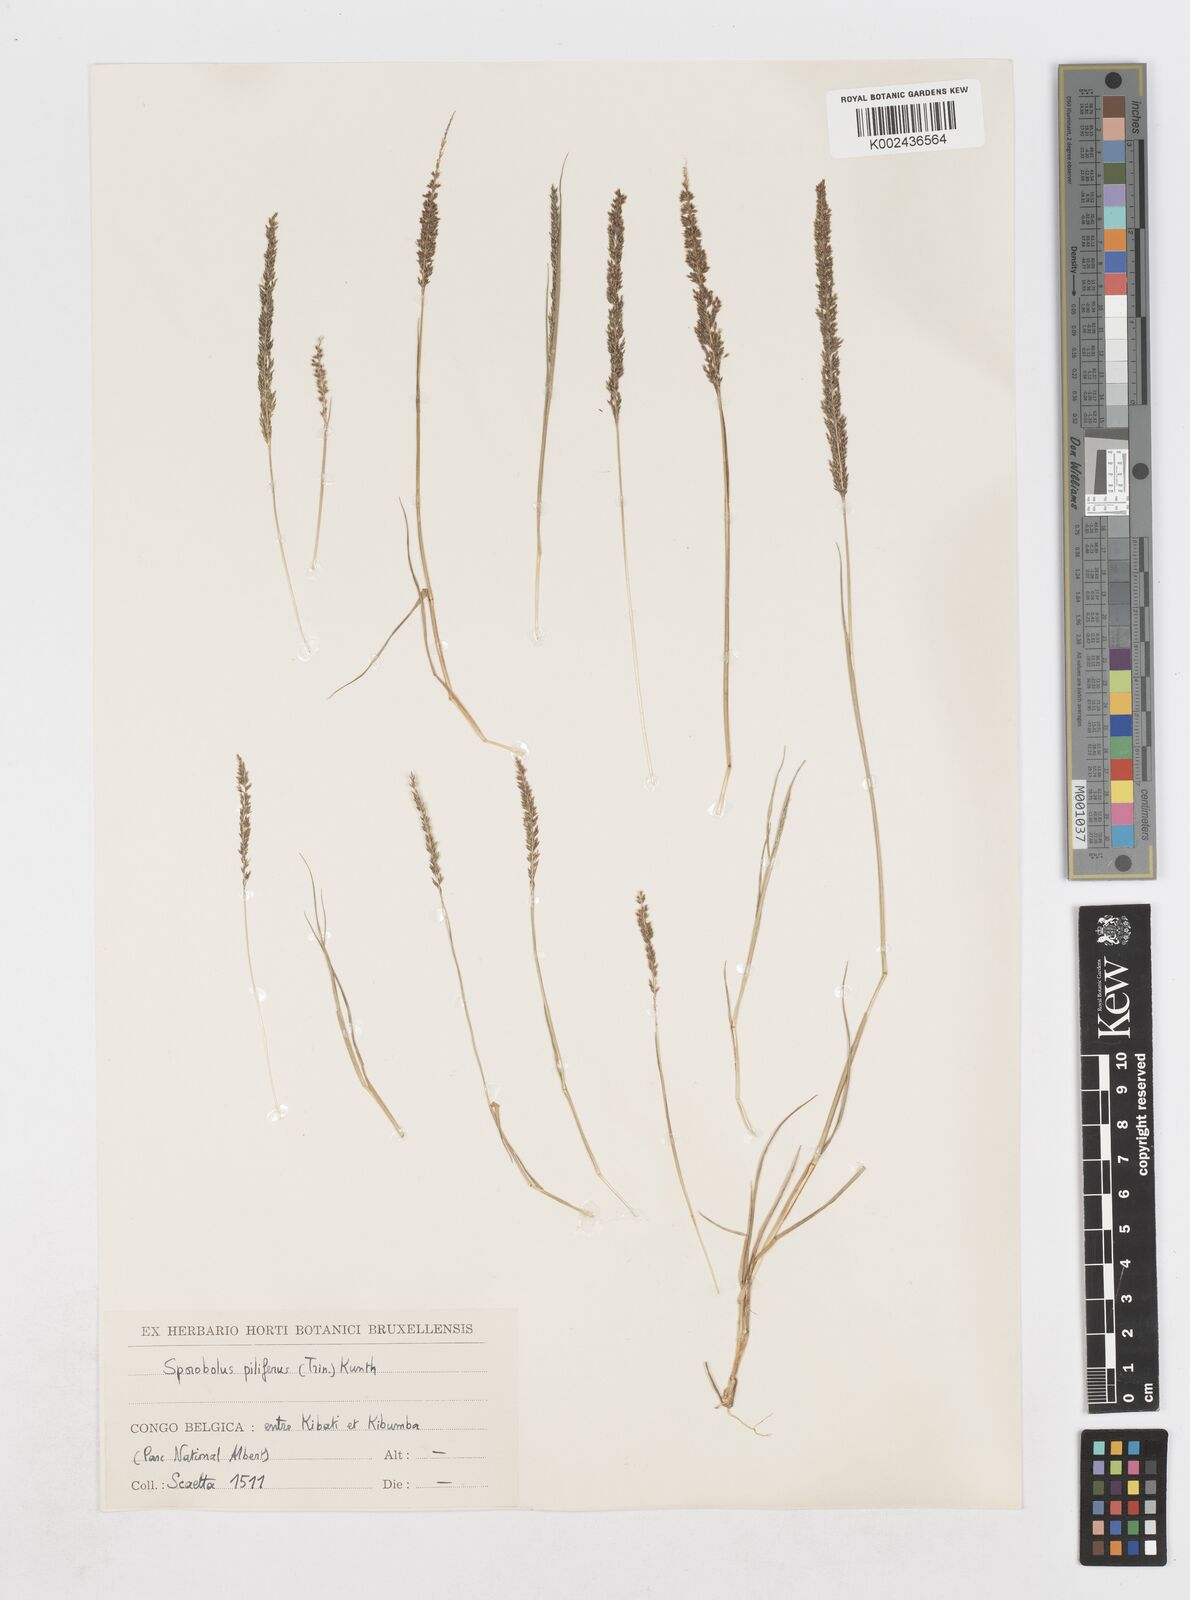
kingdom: Plantae
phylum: Tracheophyta
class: Liliopsida
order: Poales
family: Poaceae
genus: Sporobolus
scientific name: Sporobolus pilifer
